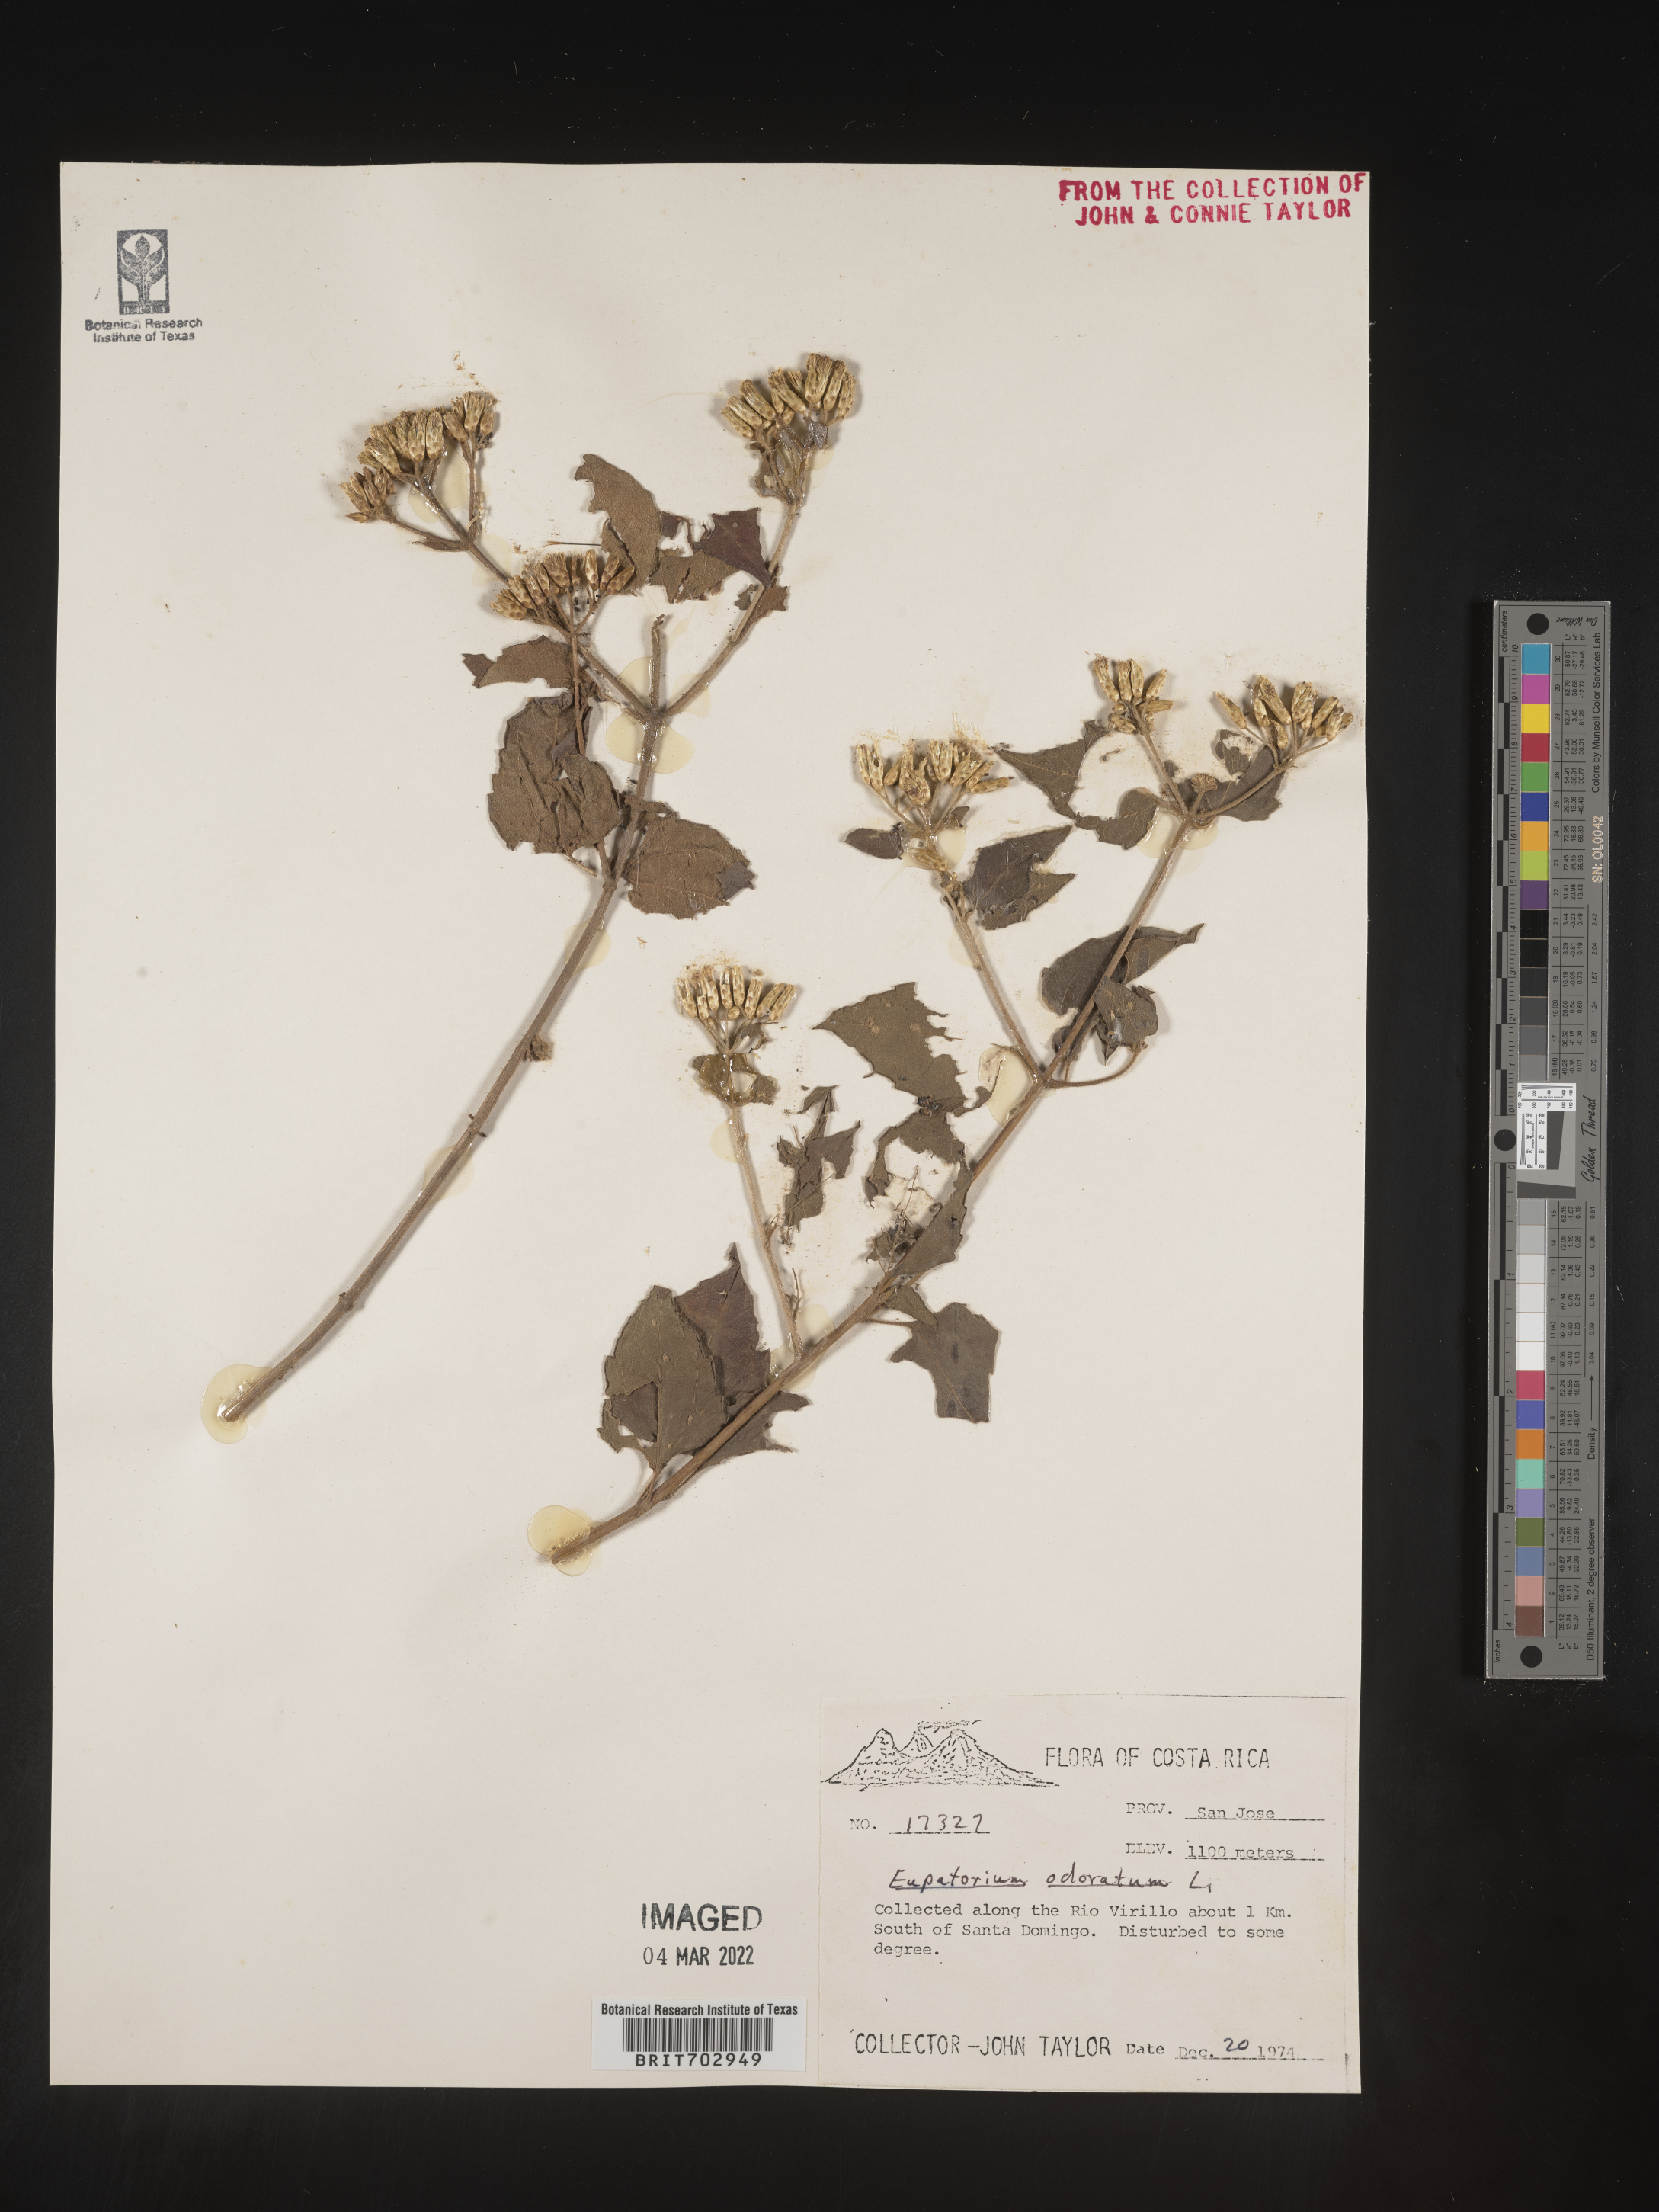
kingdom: Plantae
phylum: Tracheophyta
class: Magnoliopsida
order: Asterales
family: Asteraceae
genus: Eupatorium
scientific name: Eupatorium
